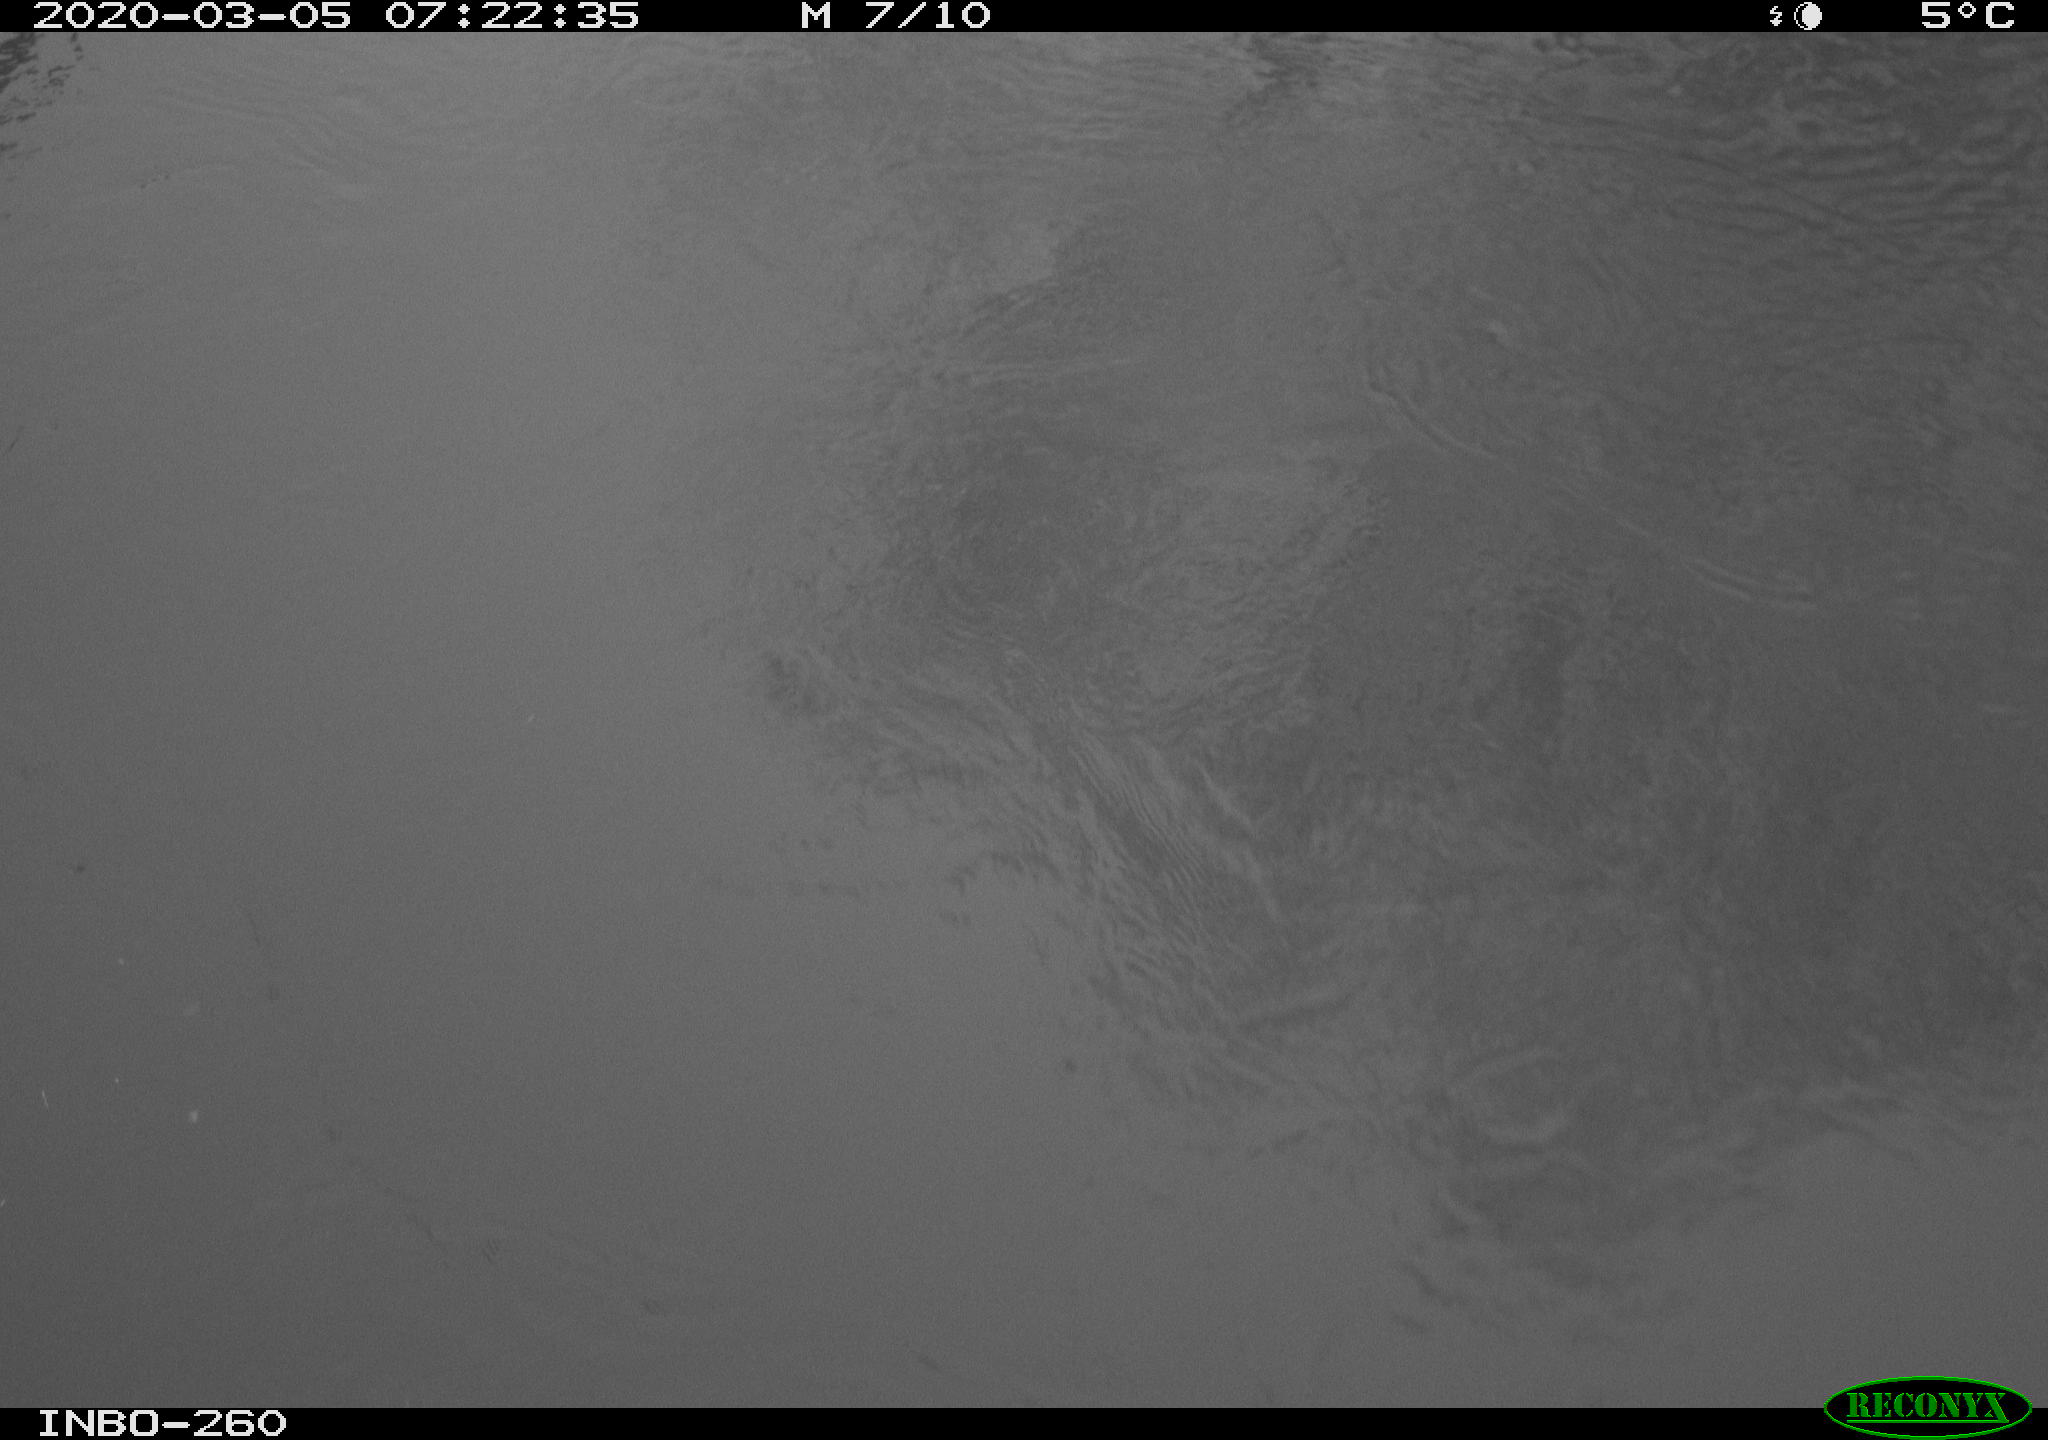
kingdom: Animalia
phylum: Chordata
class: Aves
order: Gruiformes
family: Rallidae
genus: Gallinula
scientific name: Gallinula chloropus
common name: Common moorhen
